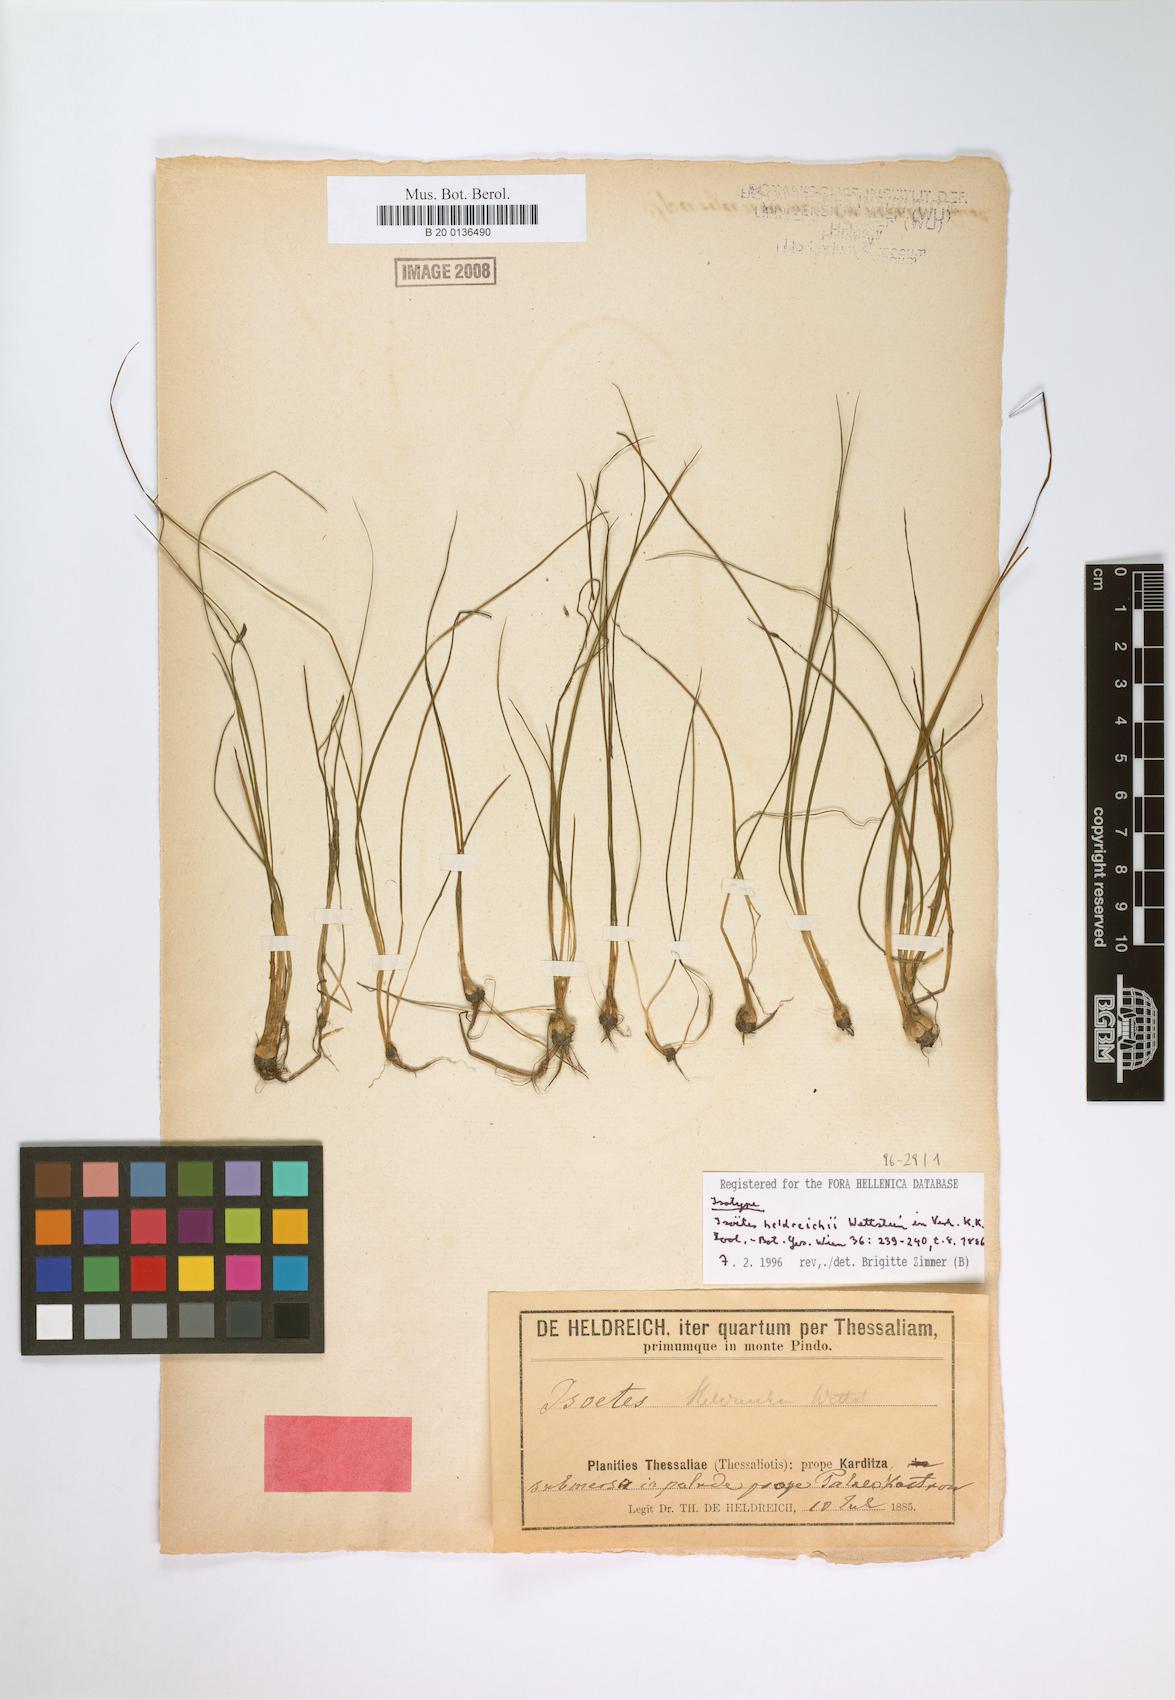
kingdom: Plantae
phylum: Tracheophyta
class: Lycopodiopsida
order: Isoetales
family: Isoetaceae
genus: Isoetes
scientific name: Isoetes heldreichii
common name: Pindus quillwort
